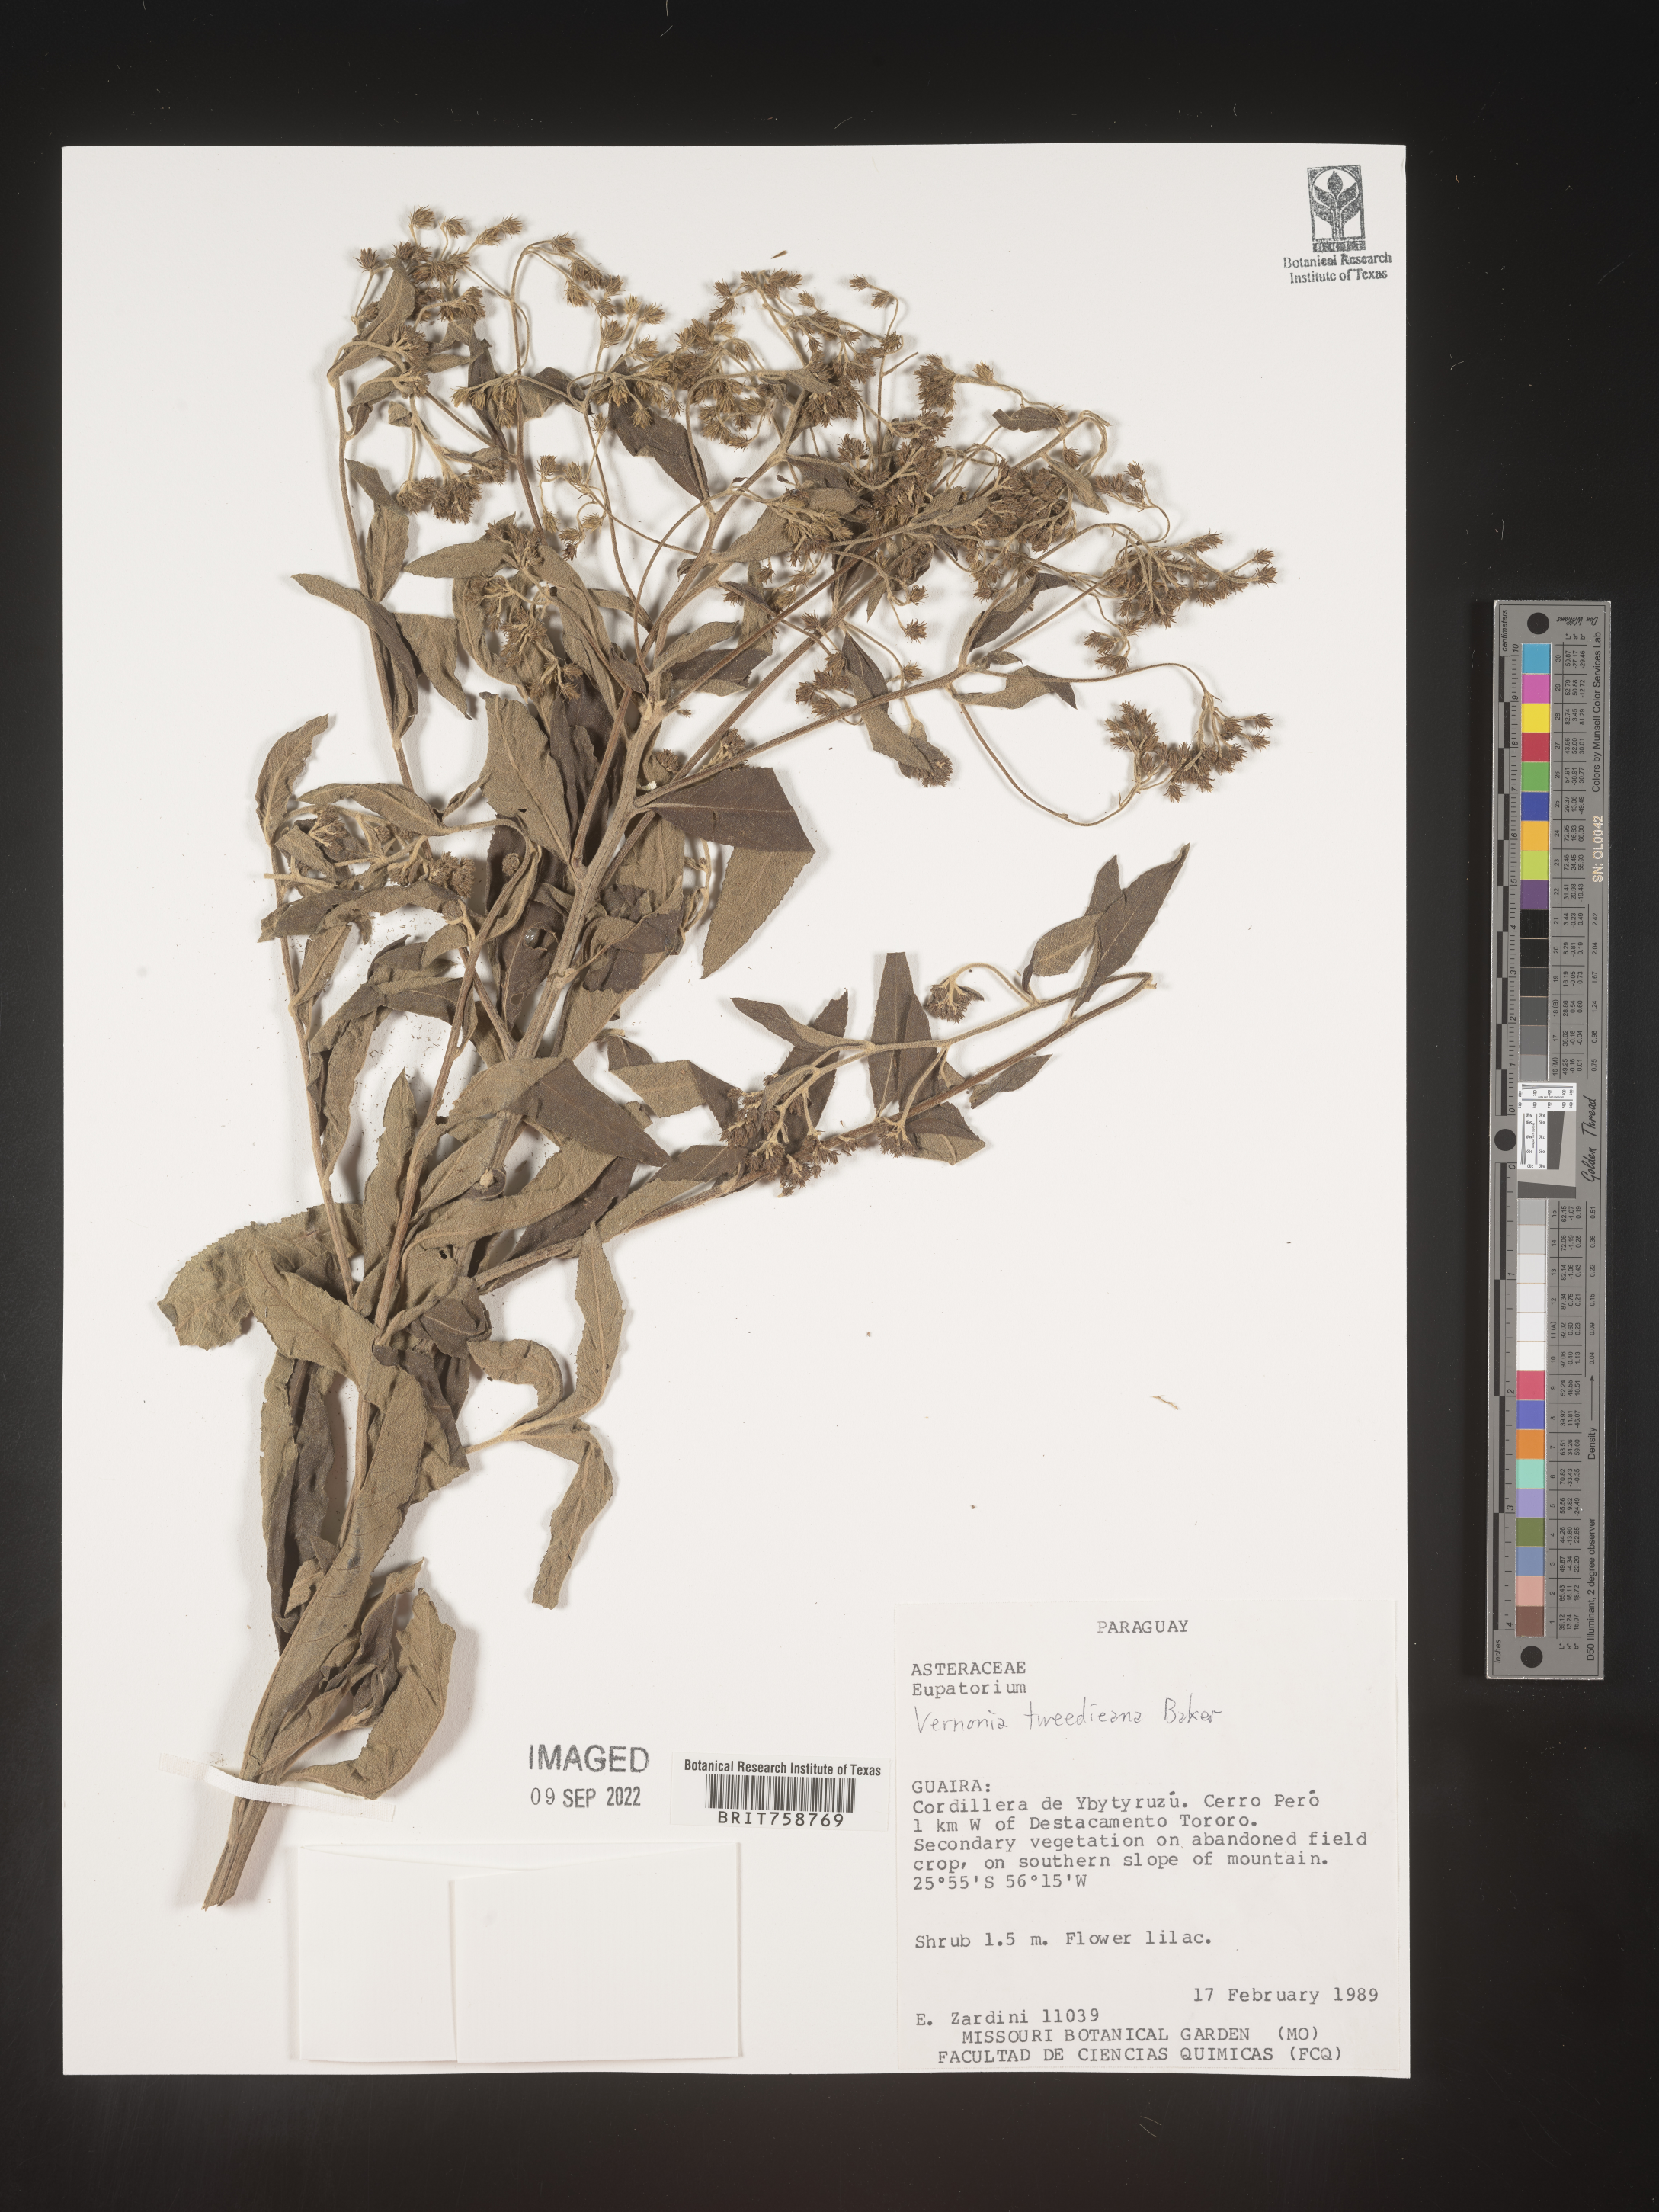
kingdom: Plantae
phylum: Tracheophyta
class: Magnoliopsida
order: Asterales
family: Asteraceae
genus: Vernonia
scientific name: Vernonia
